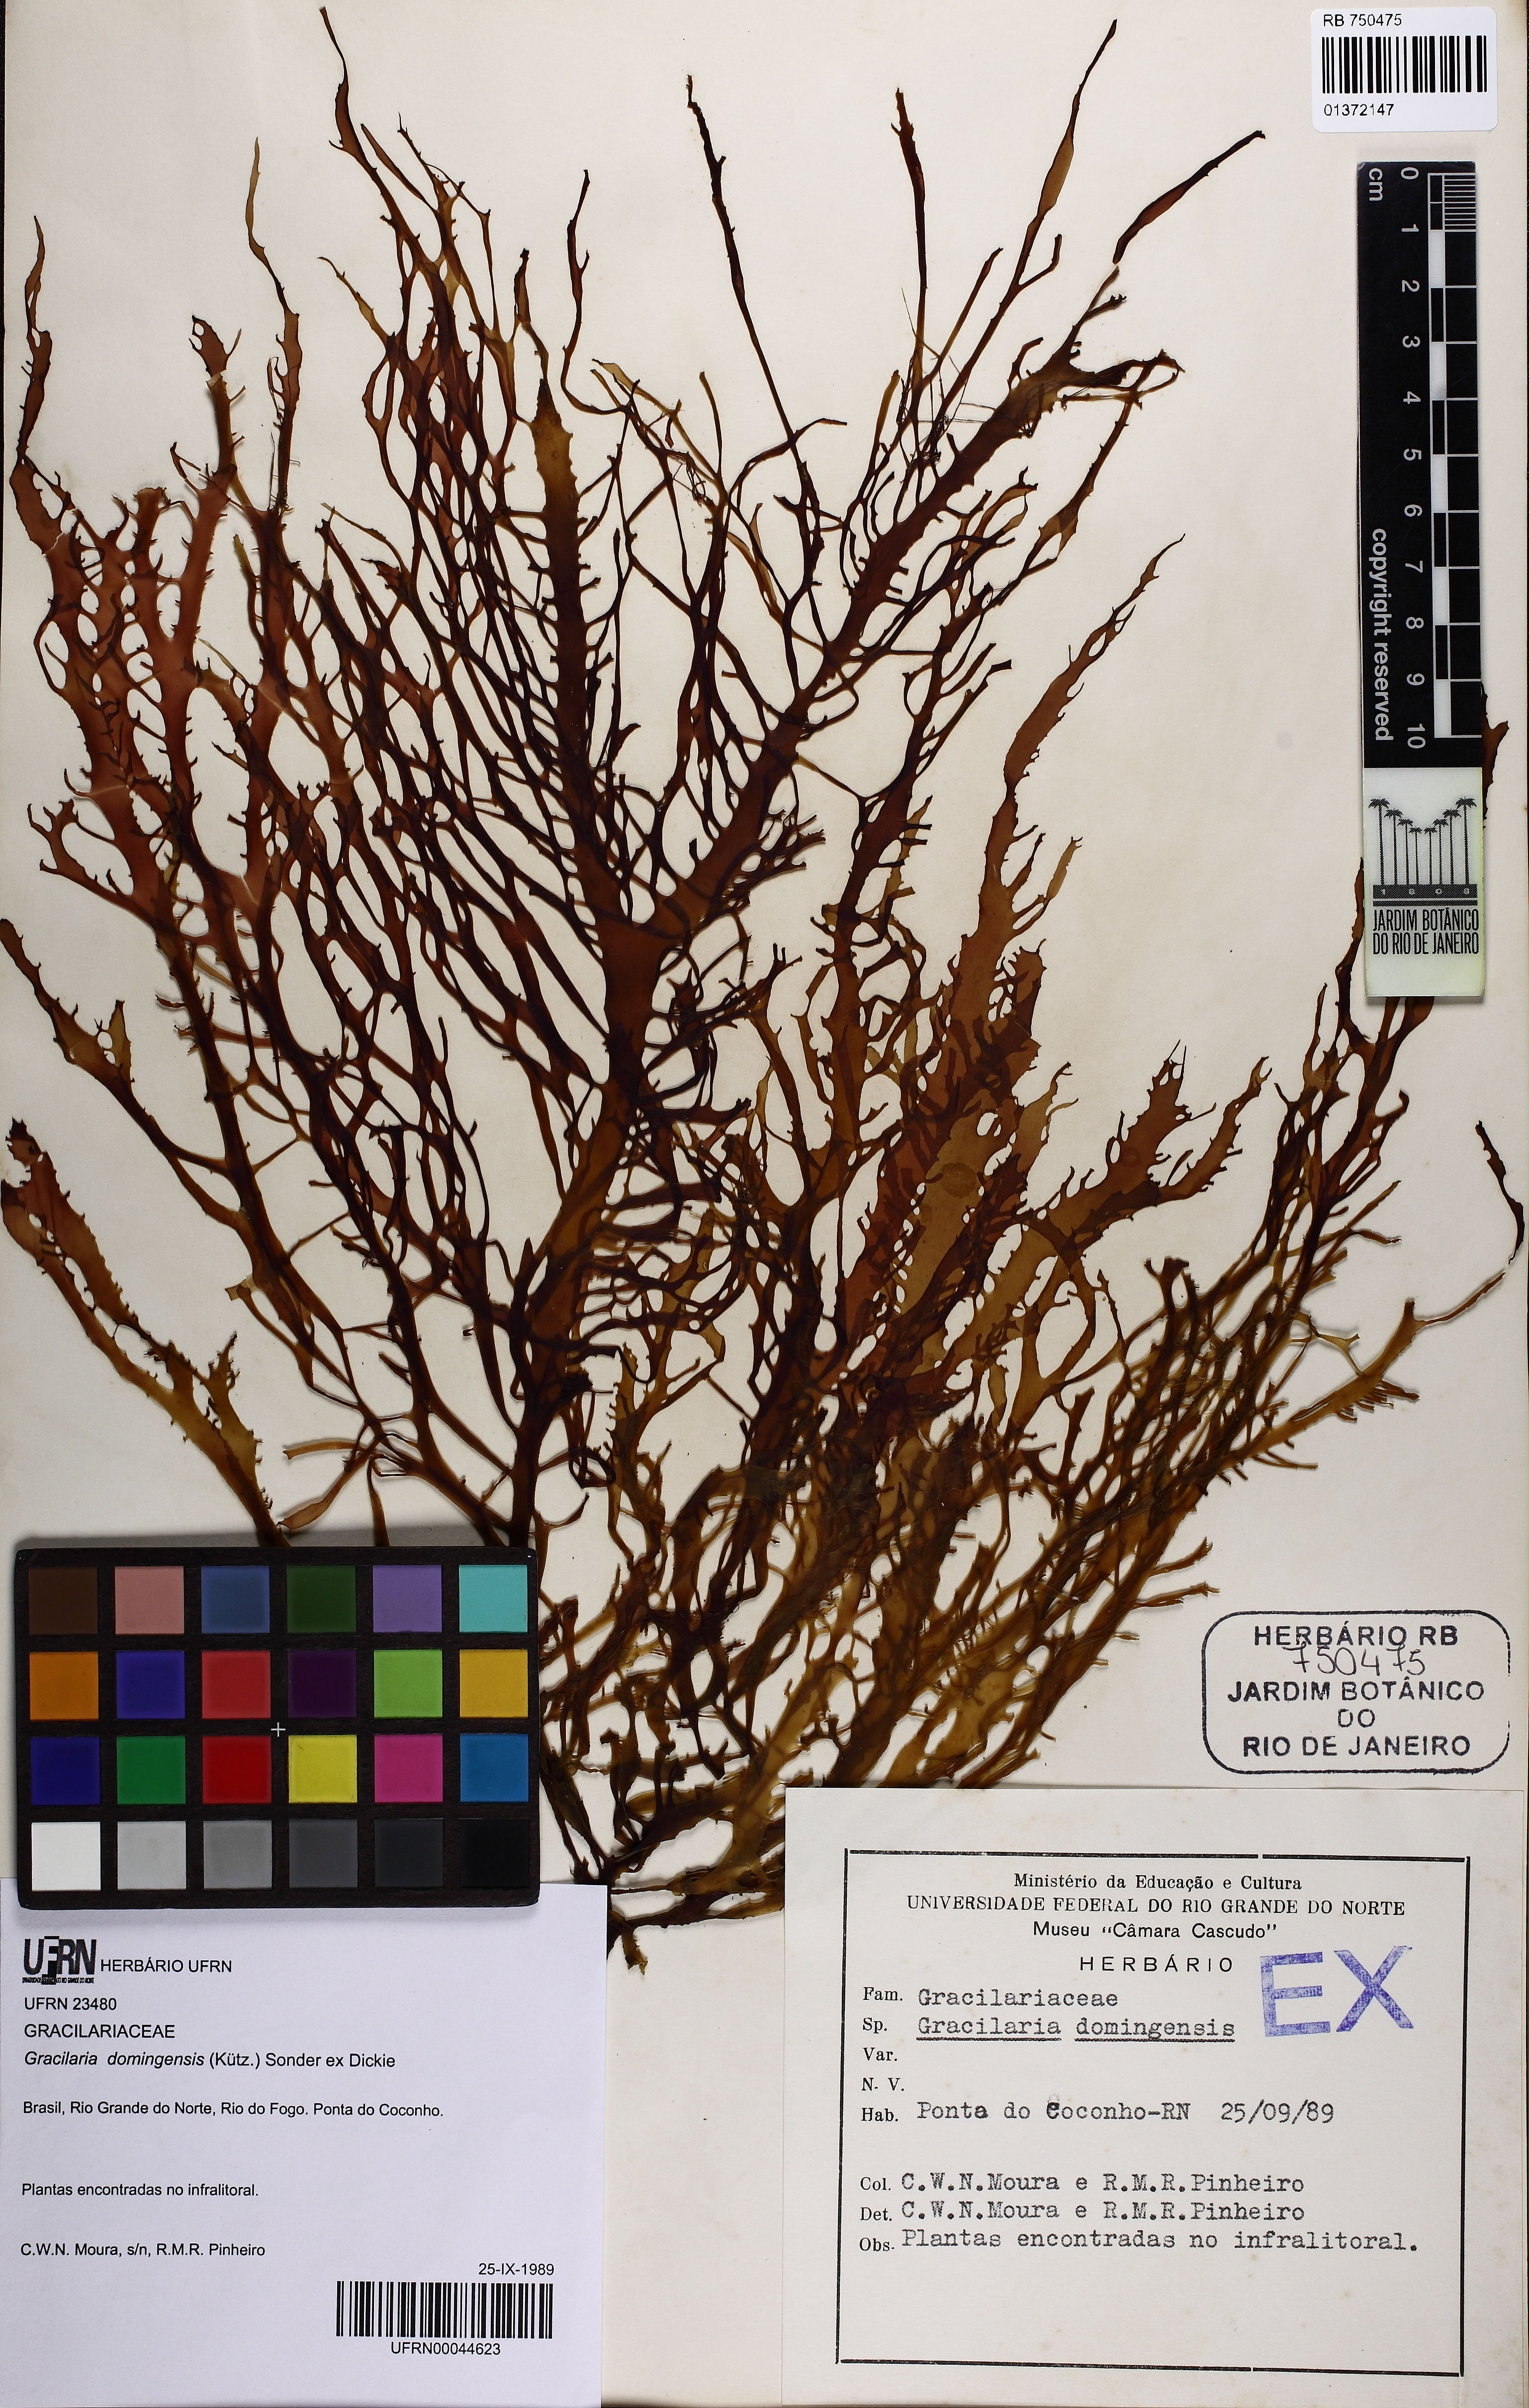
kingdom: Plantae
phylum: Rhodophyta
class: Florideophyceae
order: Gracilariales
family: Gracilariaceae
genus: Gracilaria
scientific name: Gracilaria domingensis
